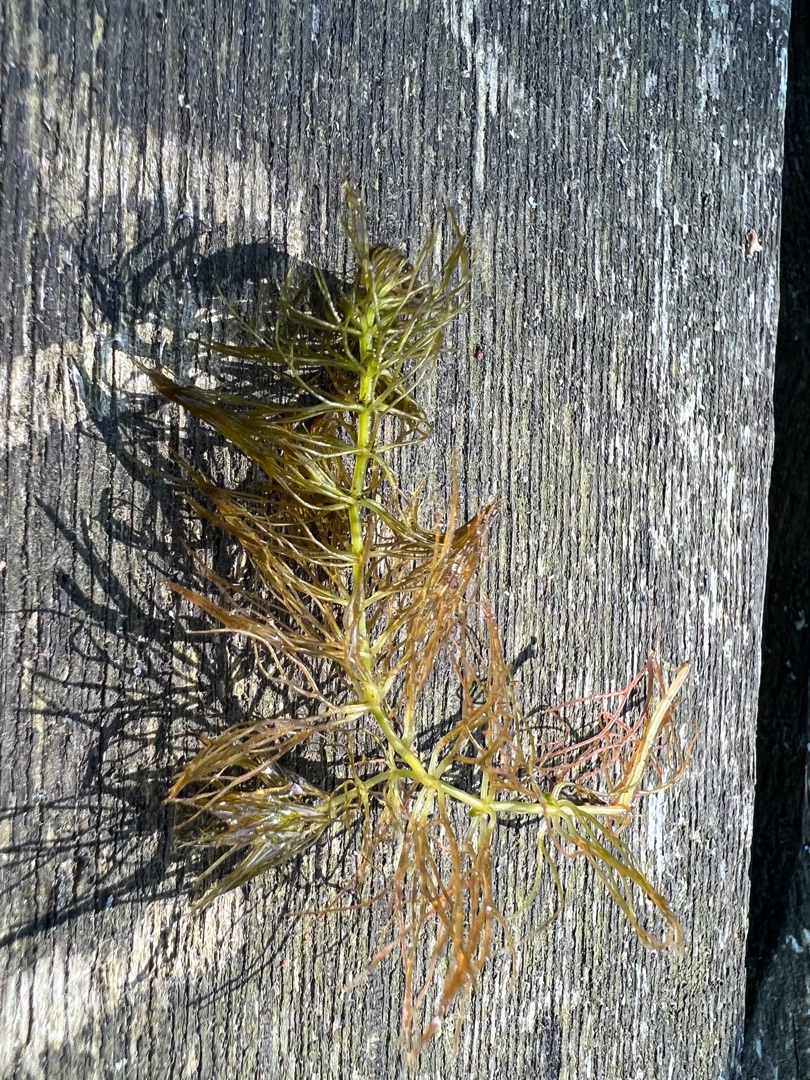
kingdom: Plantae
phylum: Tracheophyta
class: Magnoliopsida
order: Ceratophyllales
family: Ceratophyllaceae
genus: Ceratophyllum
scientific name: Ceratophyllum submersum
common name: Tornløs hornblad
